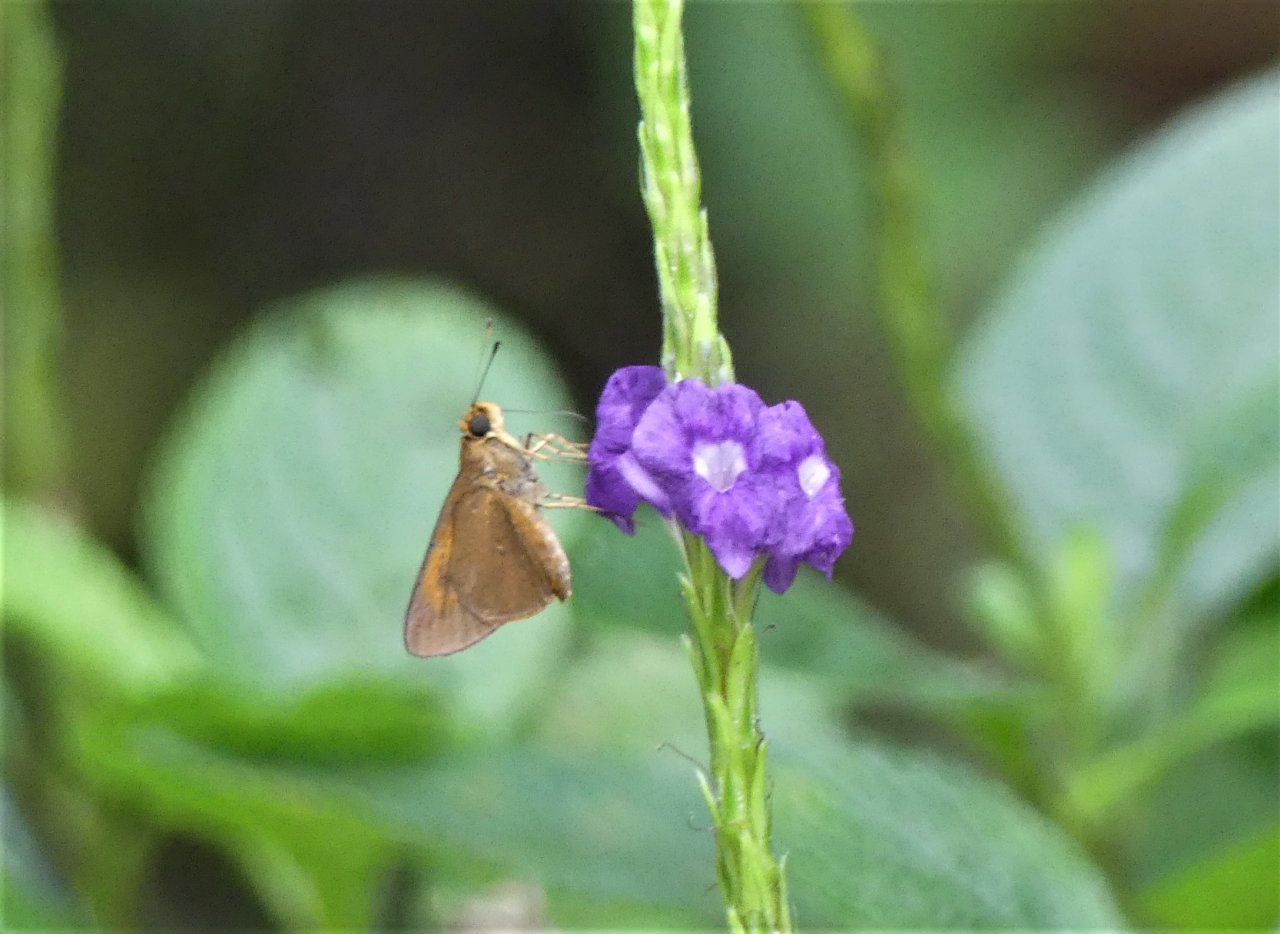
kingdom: Animalia
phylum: Arthropoda
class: Insecta
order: Lepidoptera
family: Hesperiidae
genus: Synapte
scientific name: Synapte silius
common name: Rain-forest Faceted-Skipper
